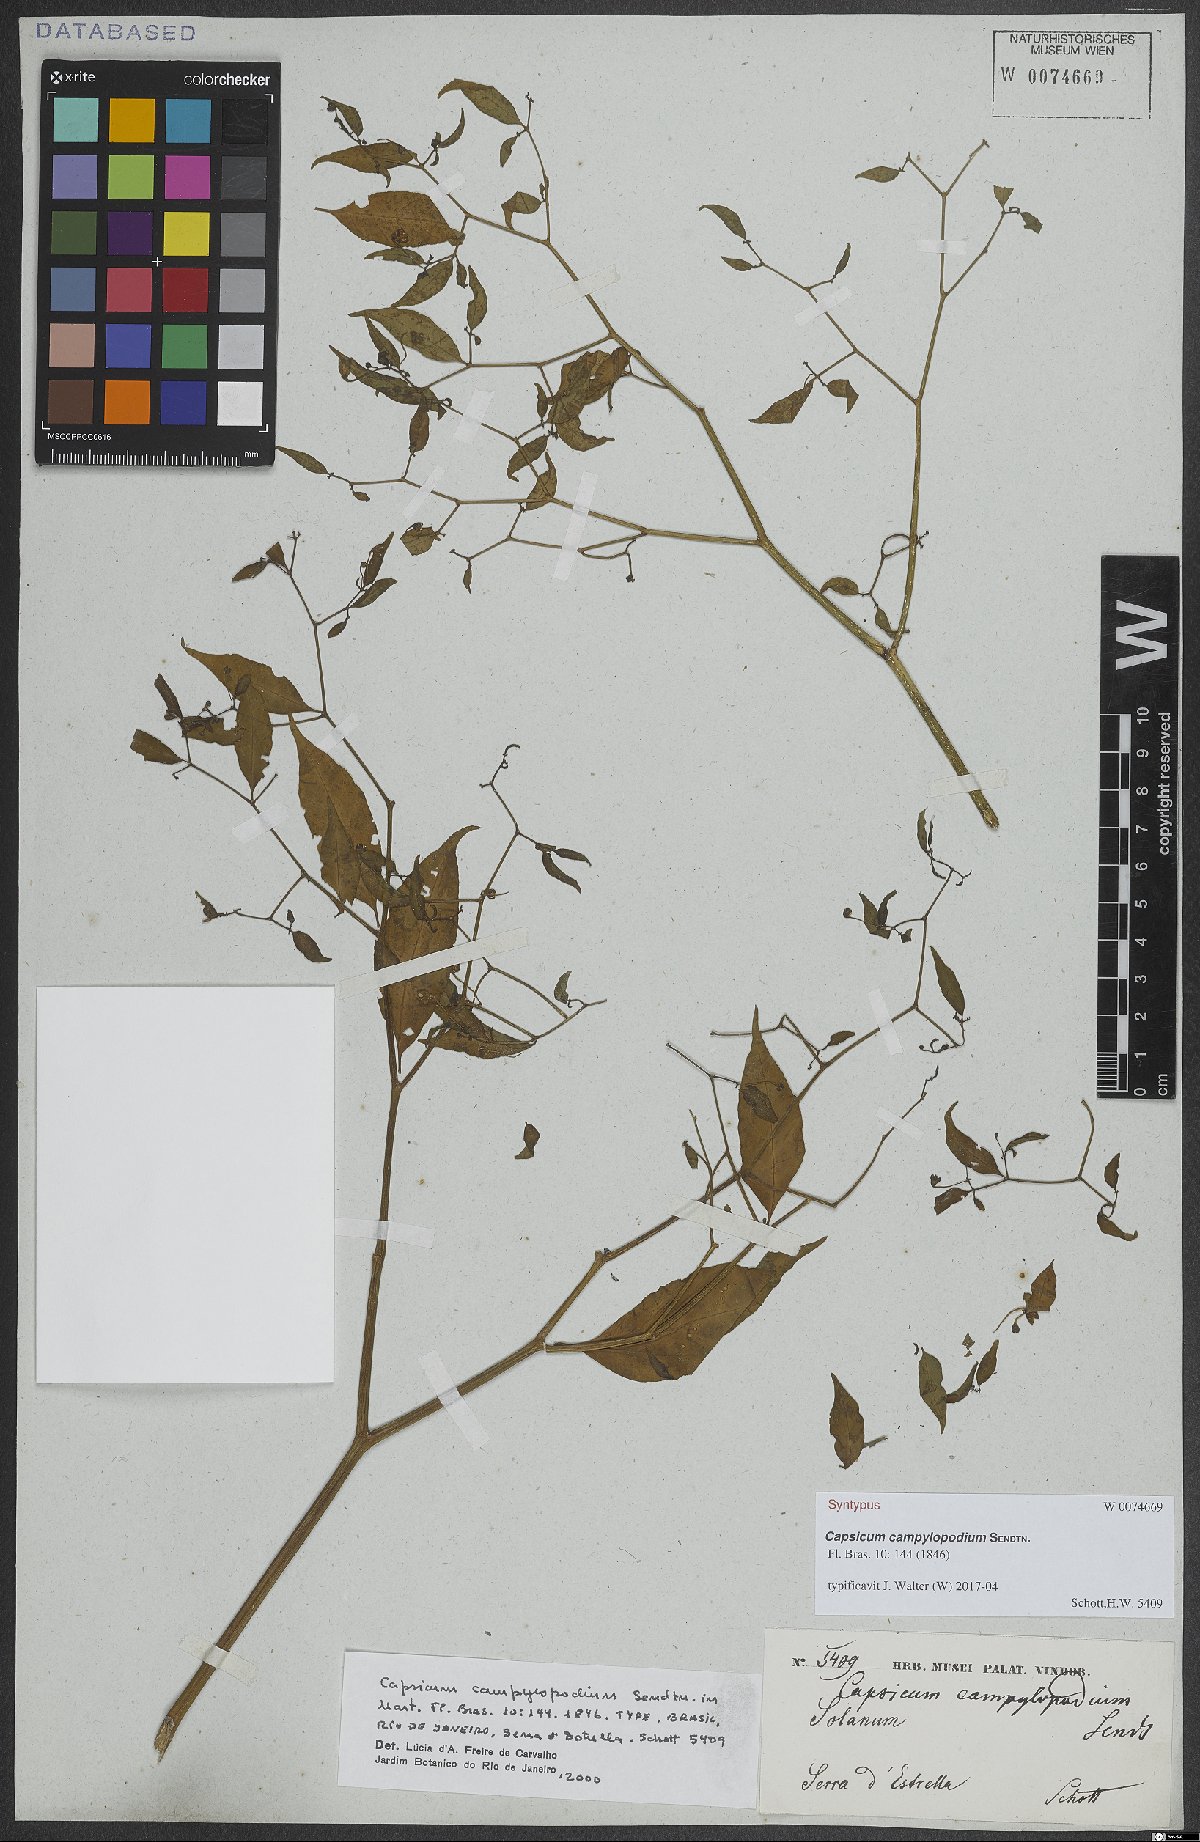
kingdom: Plantae
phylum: Tracheophyta
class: Magnoliopsida
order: Solanales
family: Solanaceae
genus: Capsicum
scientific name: Capsicum campylopodium
